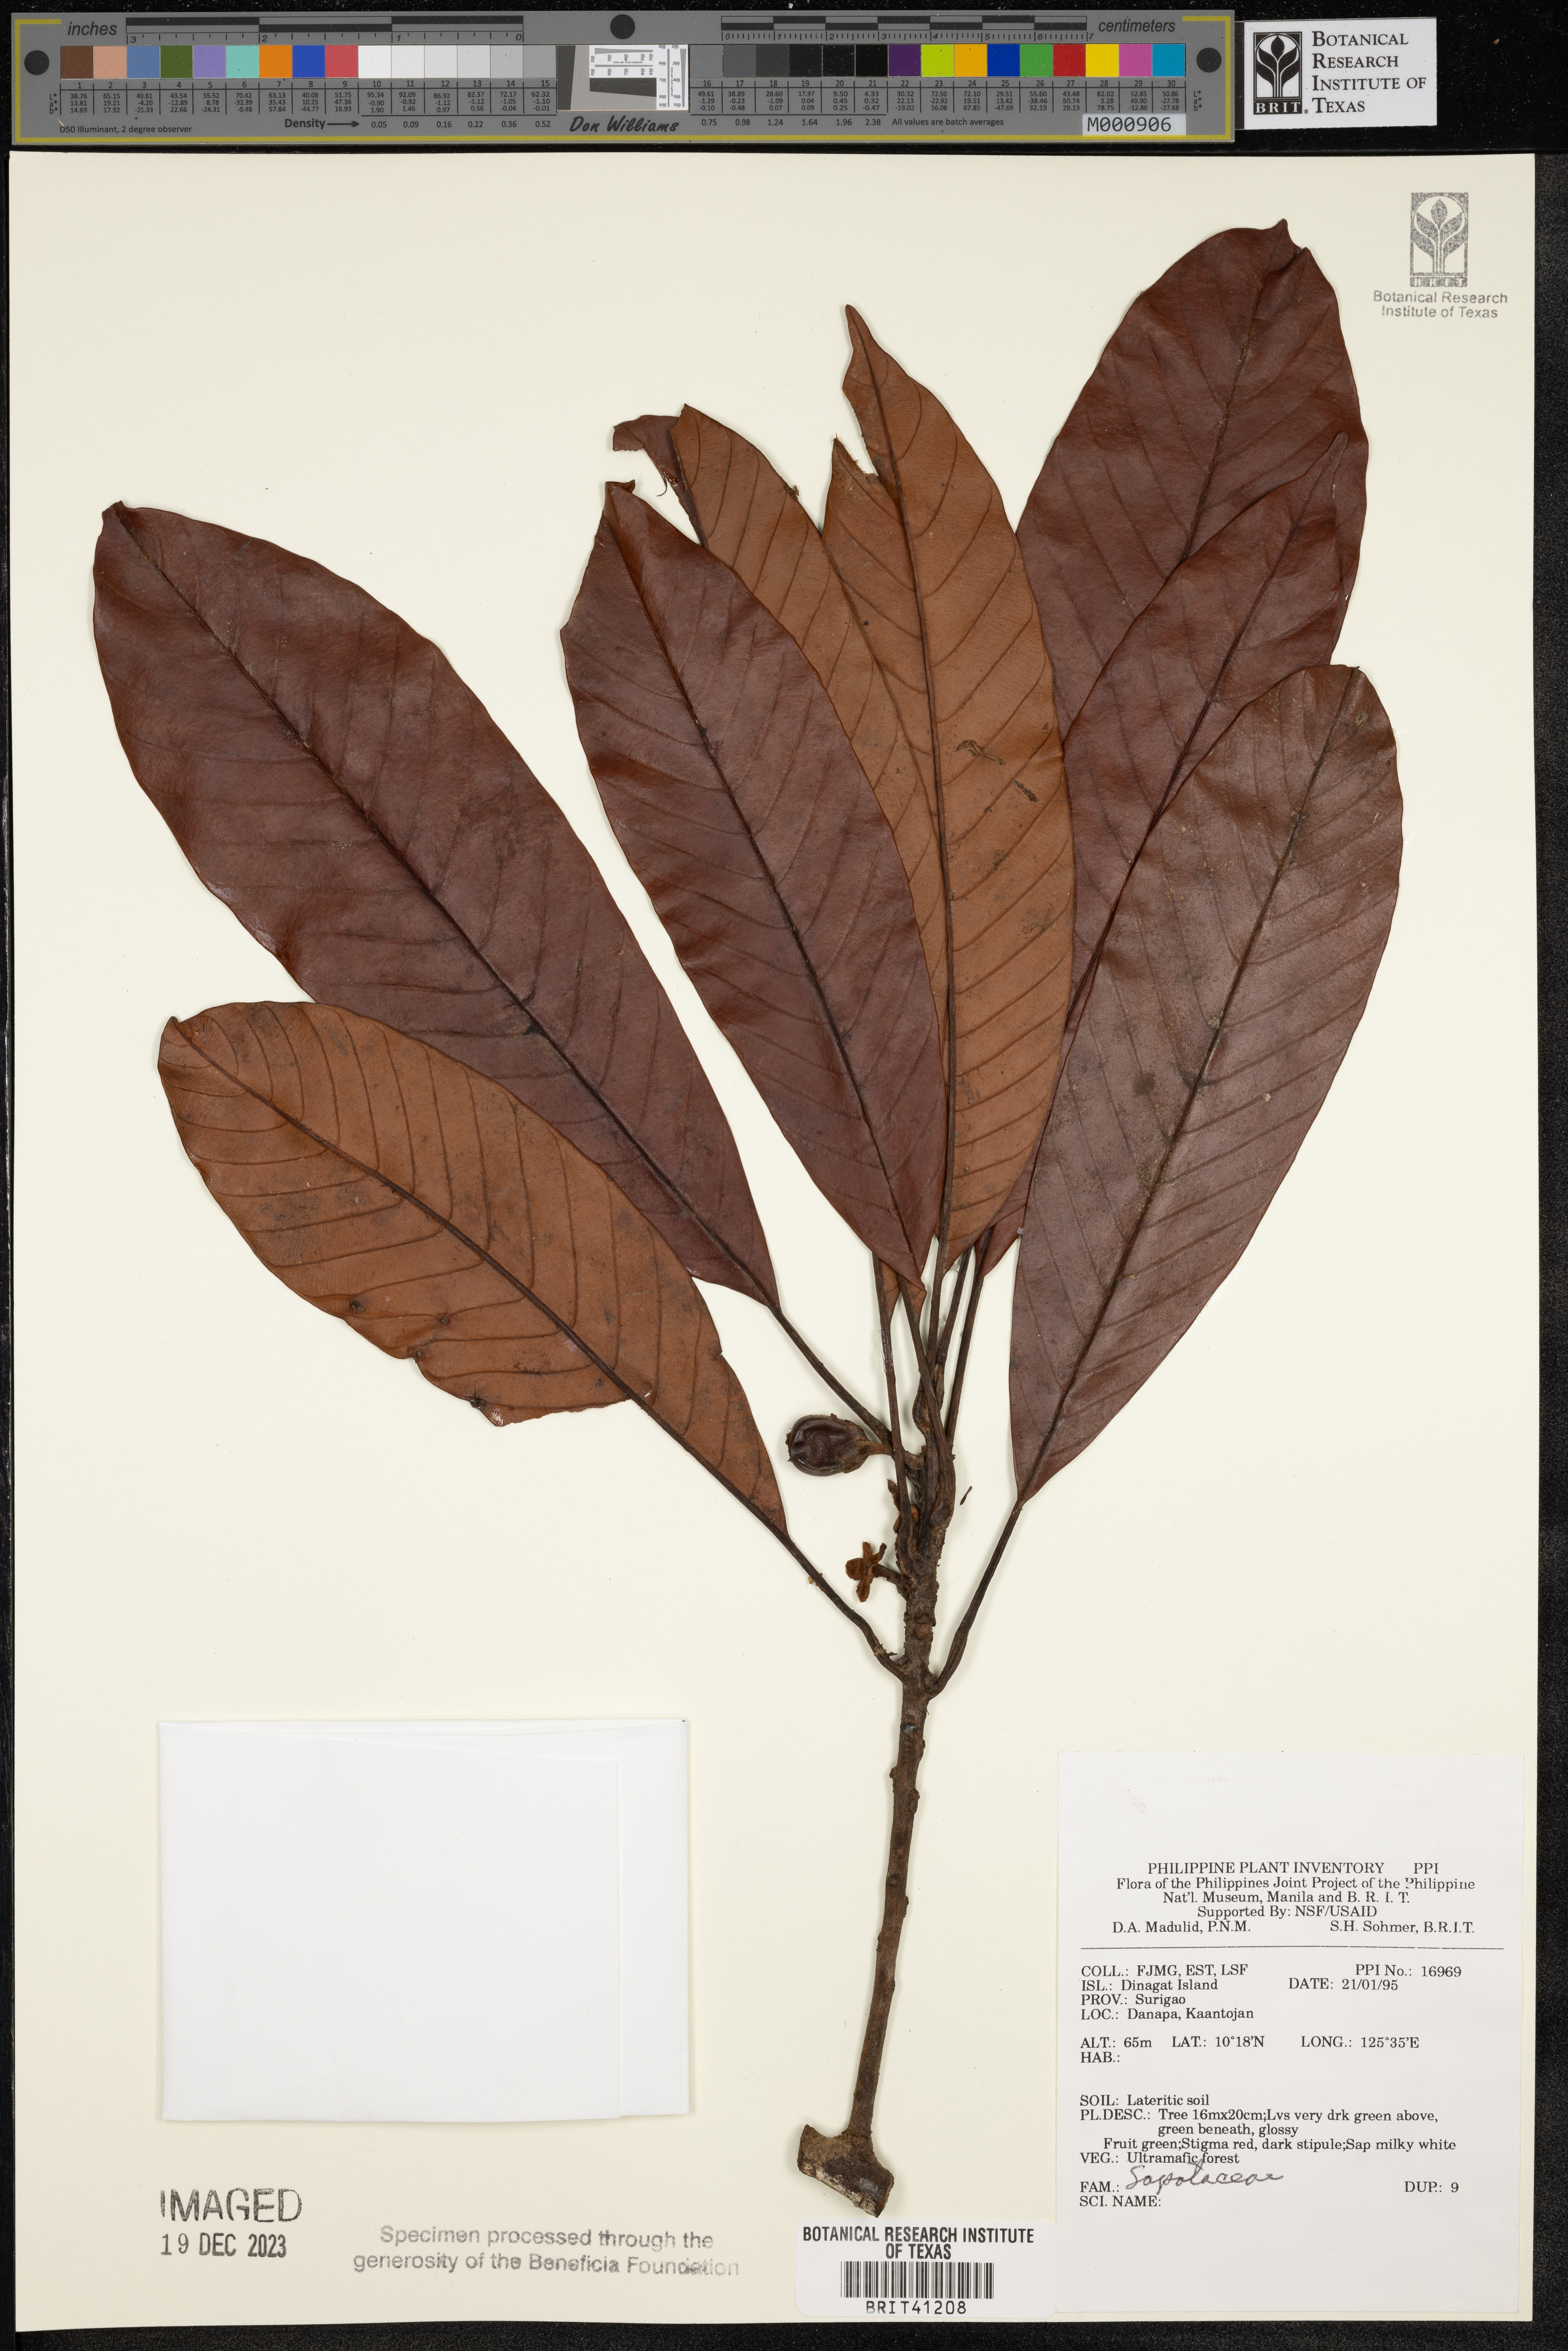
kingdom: Plantae
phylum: Tracheophyta
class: Magnoliopsida
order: Ericales
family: Sapotaceae
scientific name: Sapotaceae
